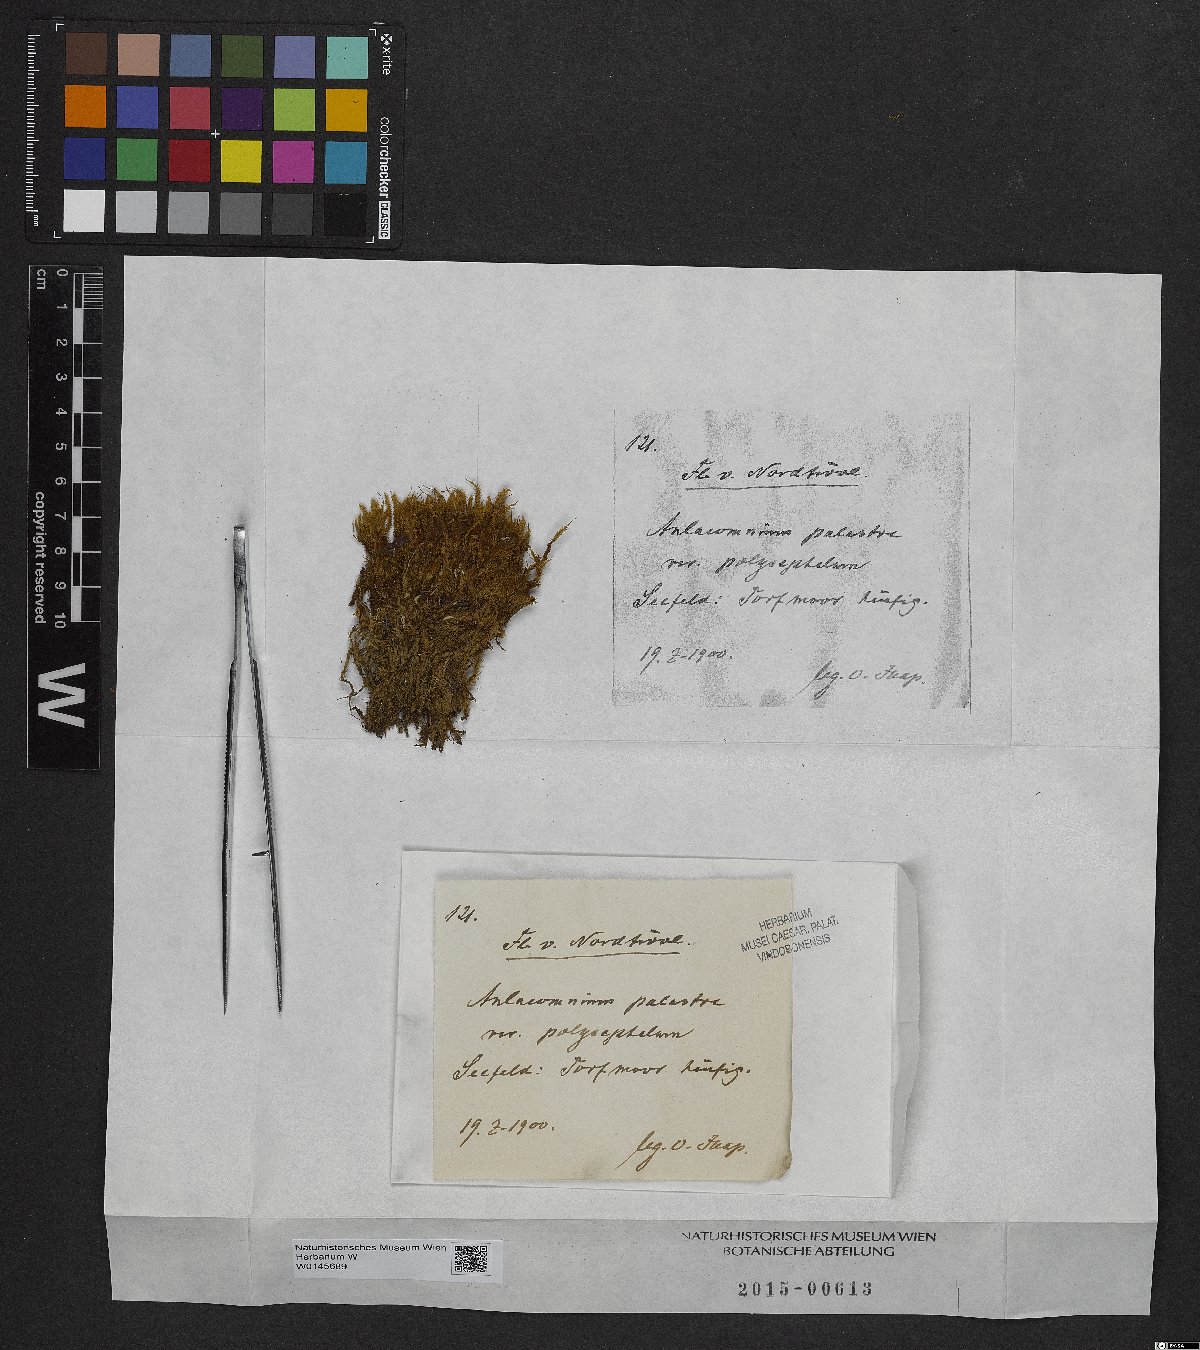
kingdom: Plantae
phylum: Bryophyta
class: Bryopsida
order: Aulacomniales
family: Aulacomniaceae
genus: Aulacomnium
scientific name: Aulacomnium palustre
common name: Bog groove-moss
